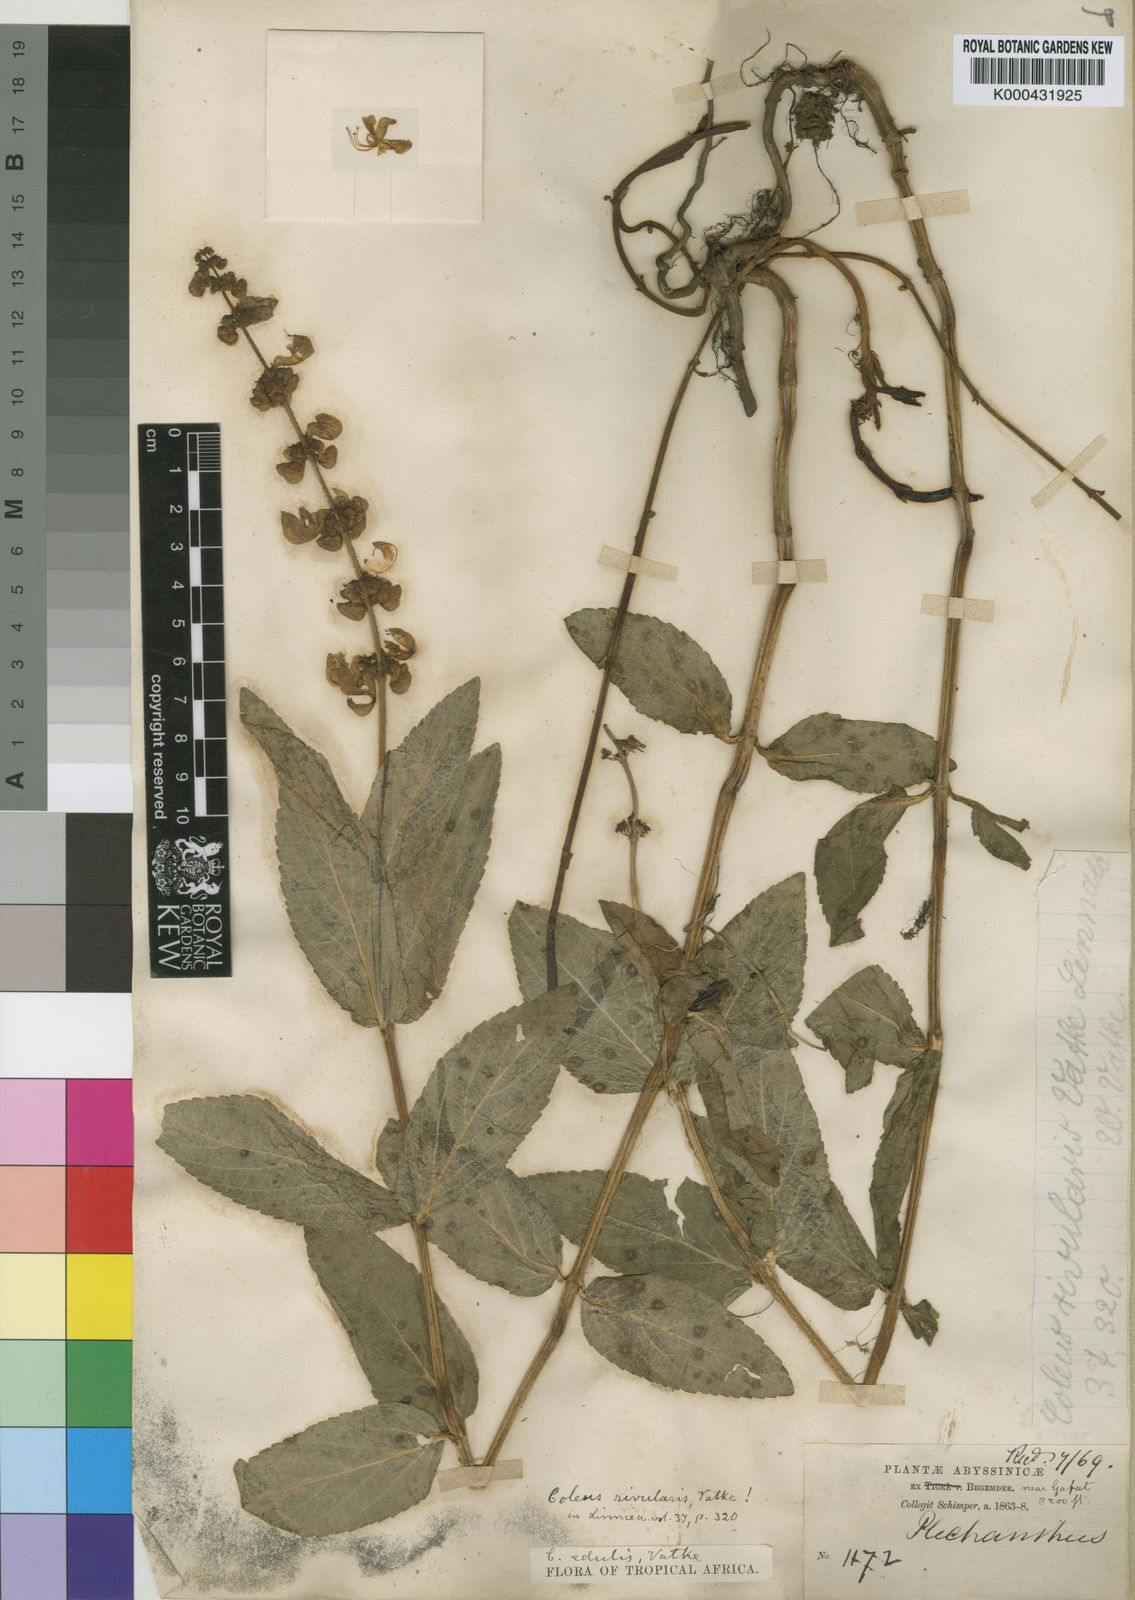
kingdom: Plantae
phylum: Tracheophyta
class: Magnoliopsida
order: Lamiales
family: Lamiaceae
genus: Coleus
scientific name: Coleus maculosus
